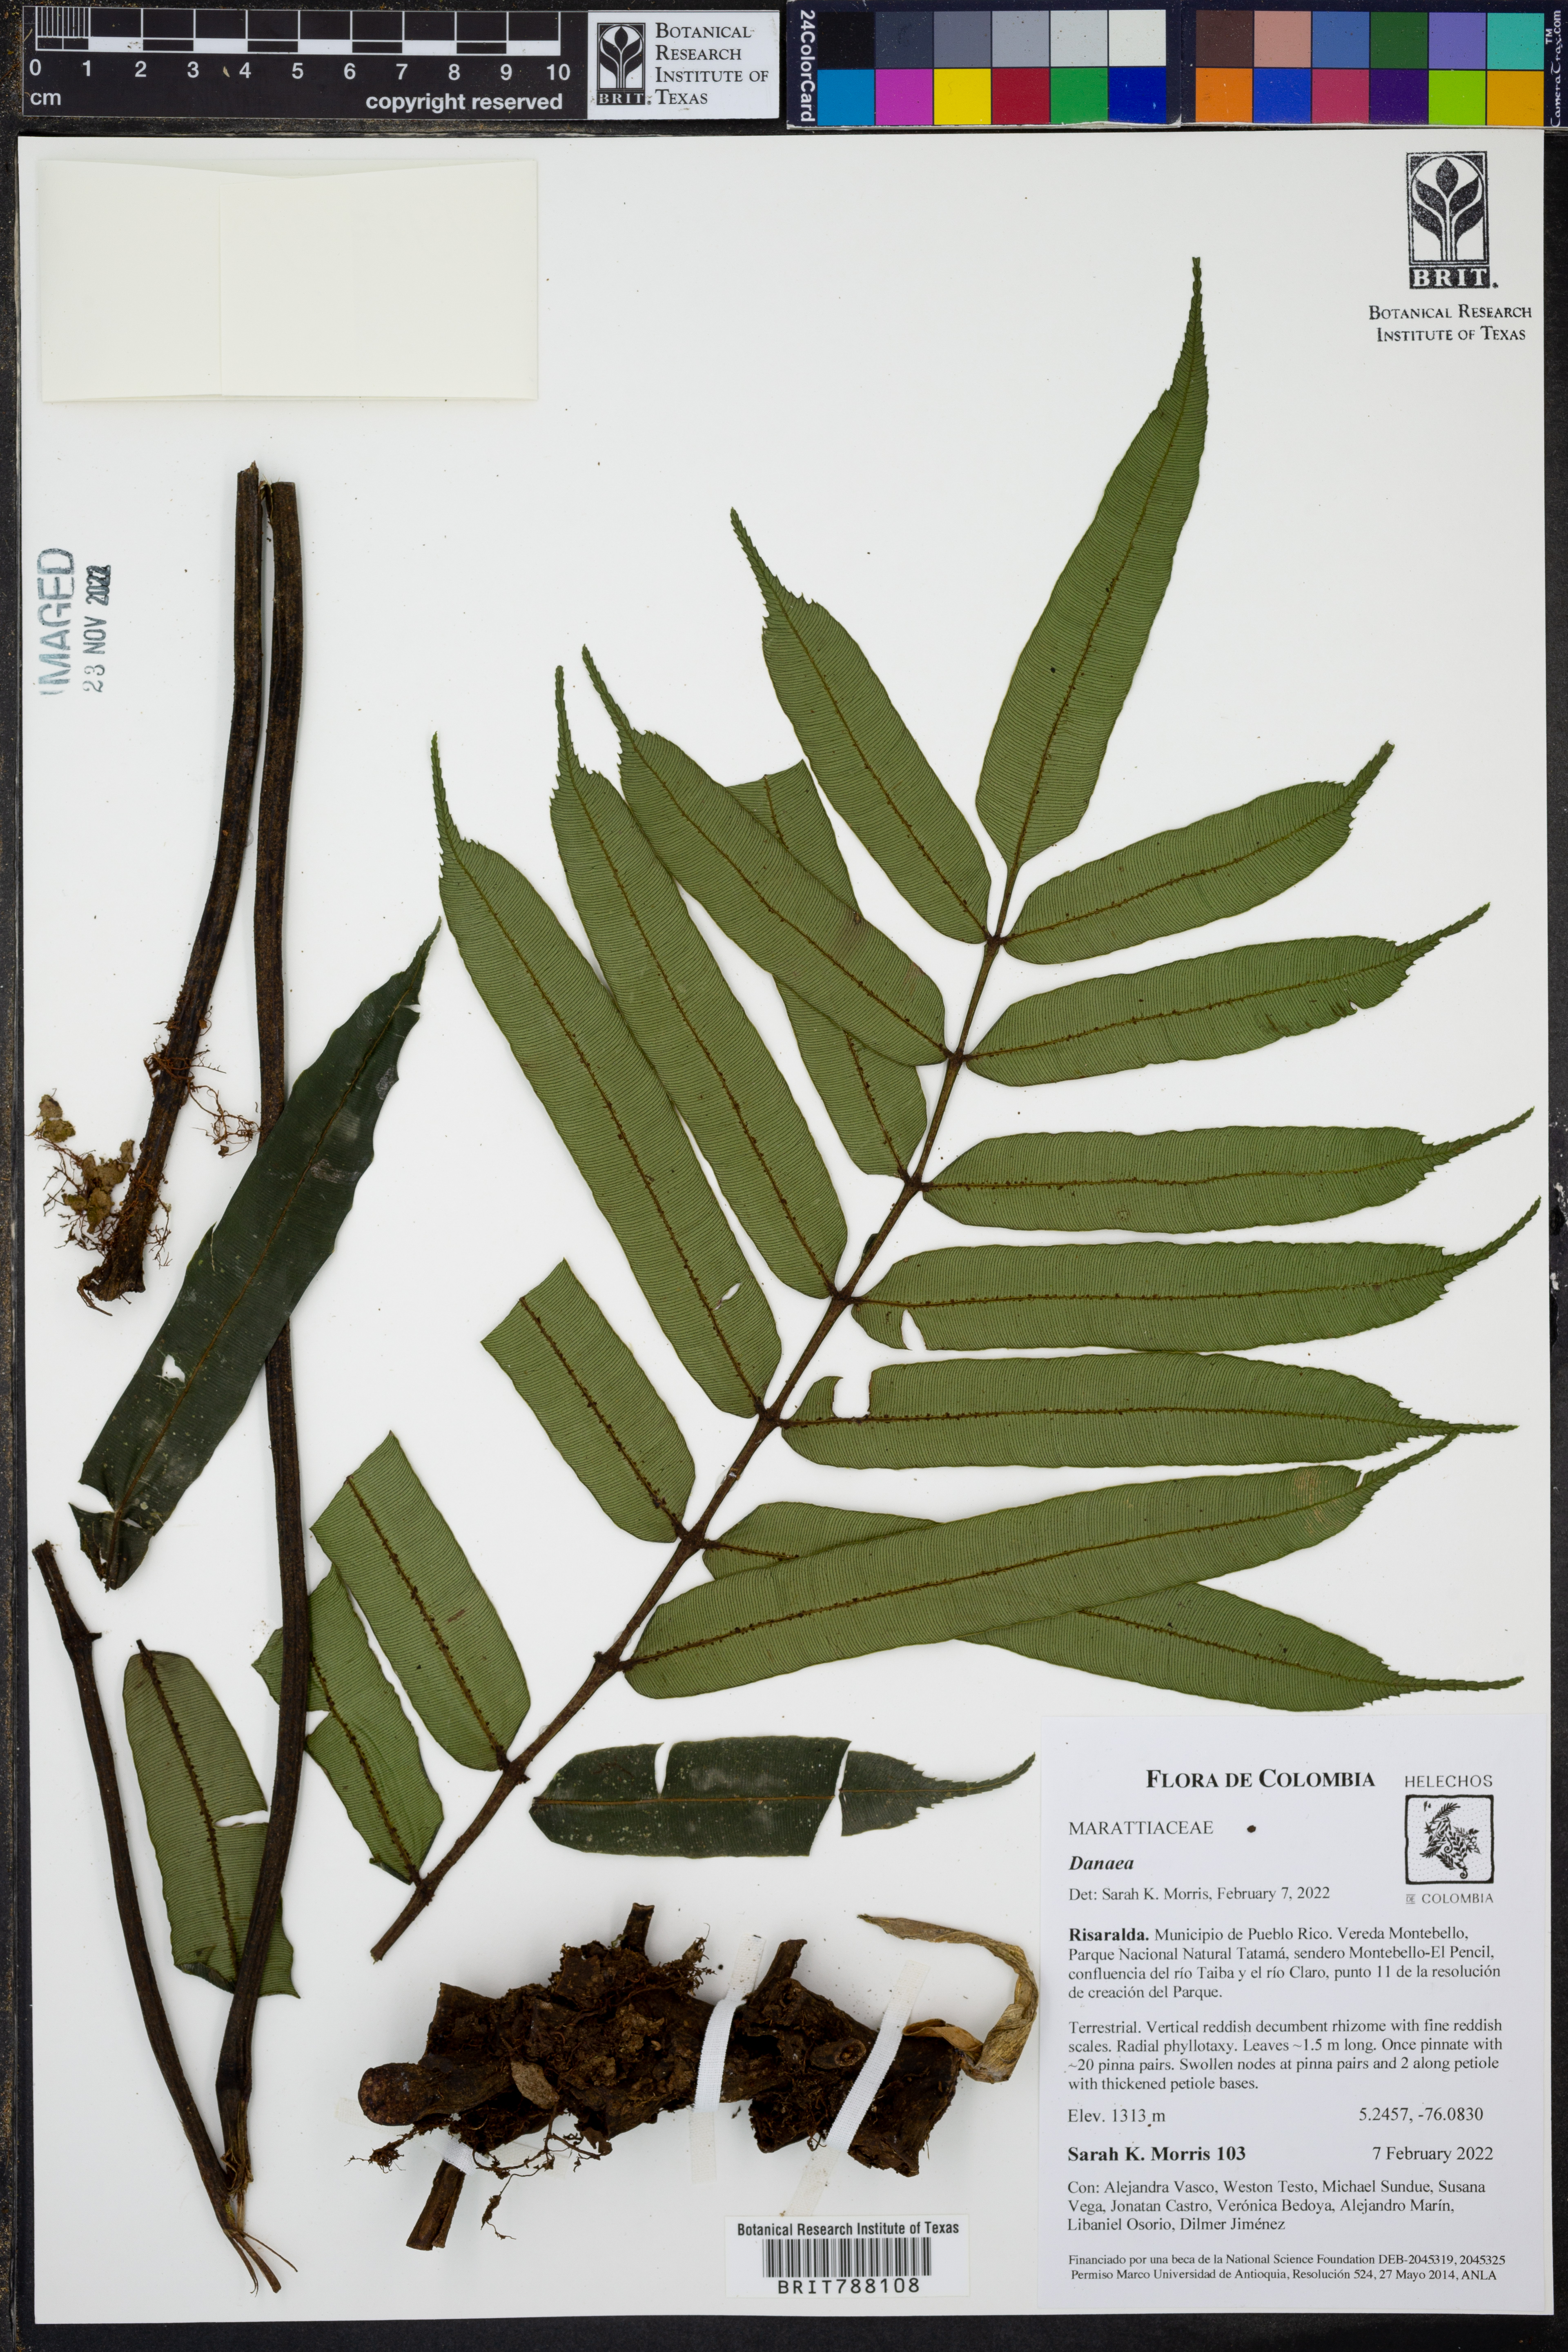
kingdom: Plantae
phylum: Tracheophyta
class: Polypodiopsida
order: Marattiales
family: Marattiaceae
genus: Danaea
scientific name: Danaea
